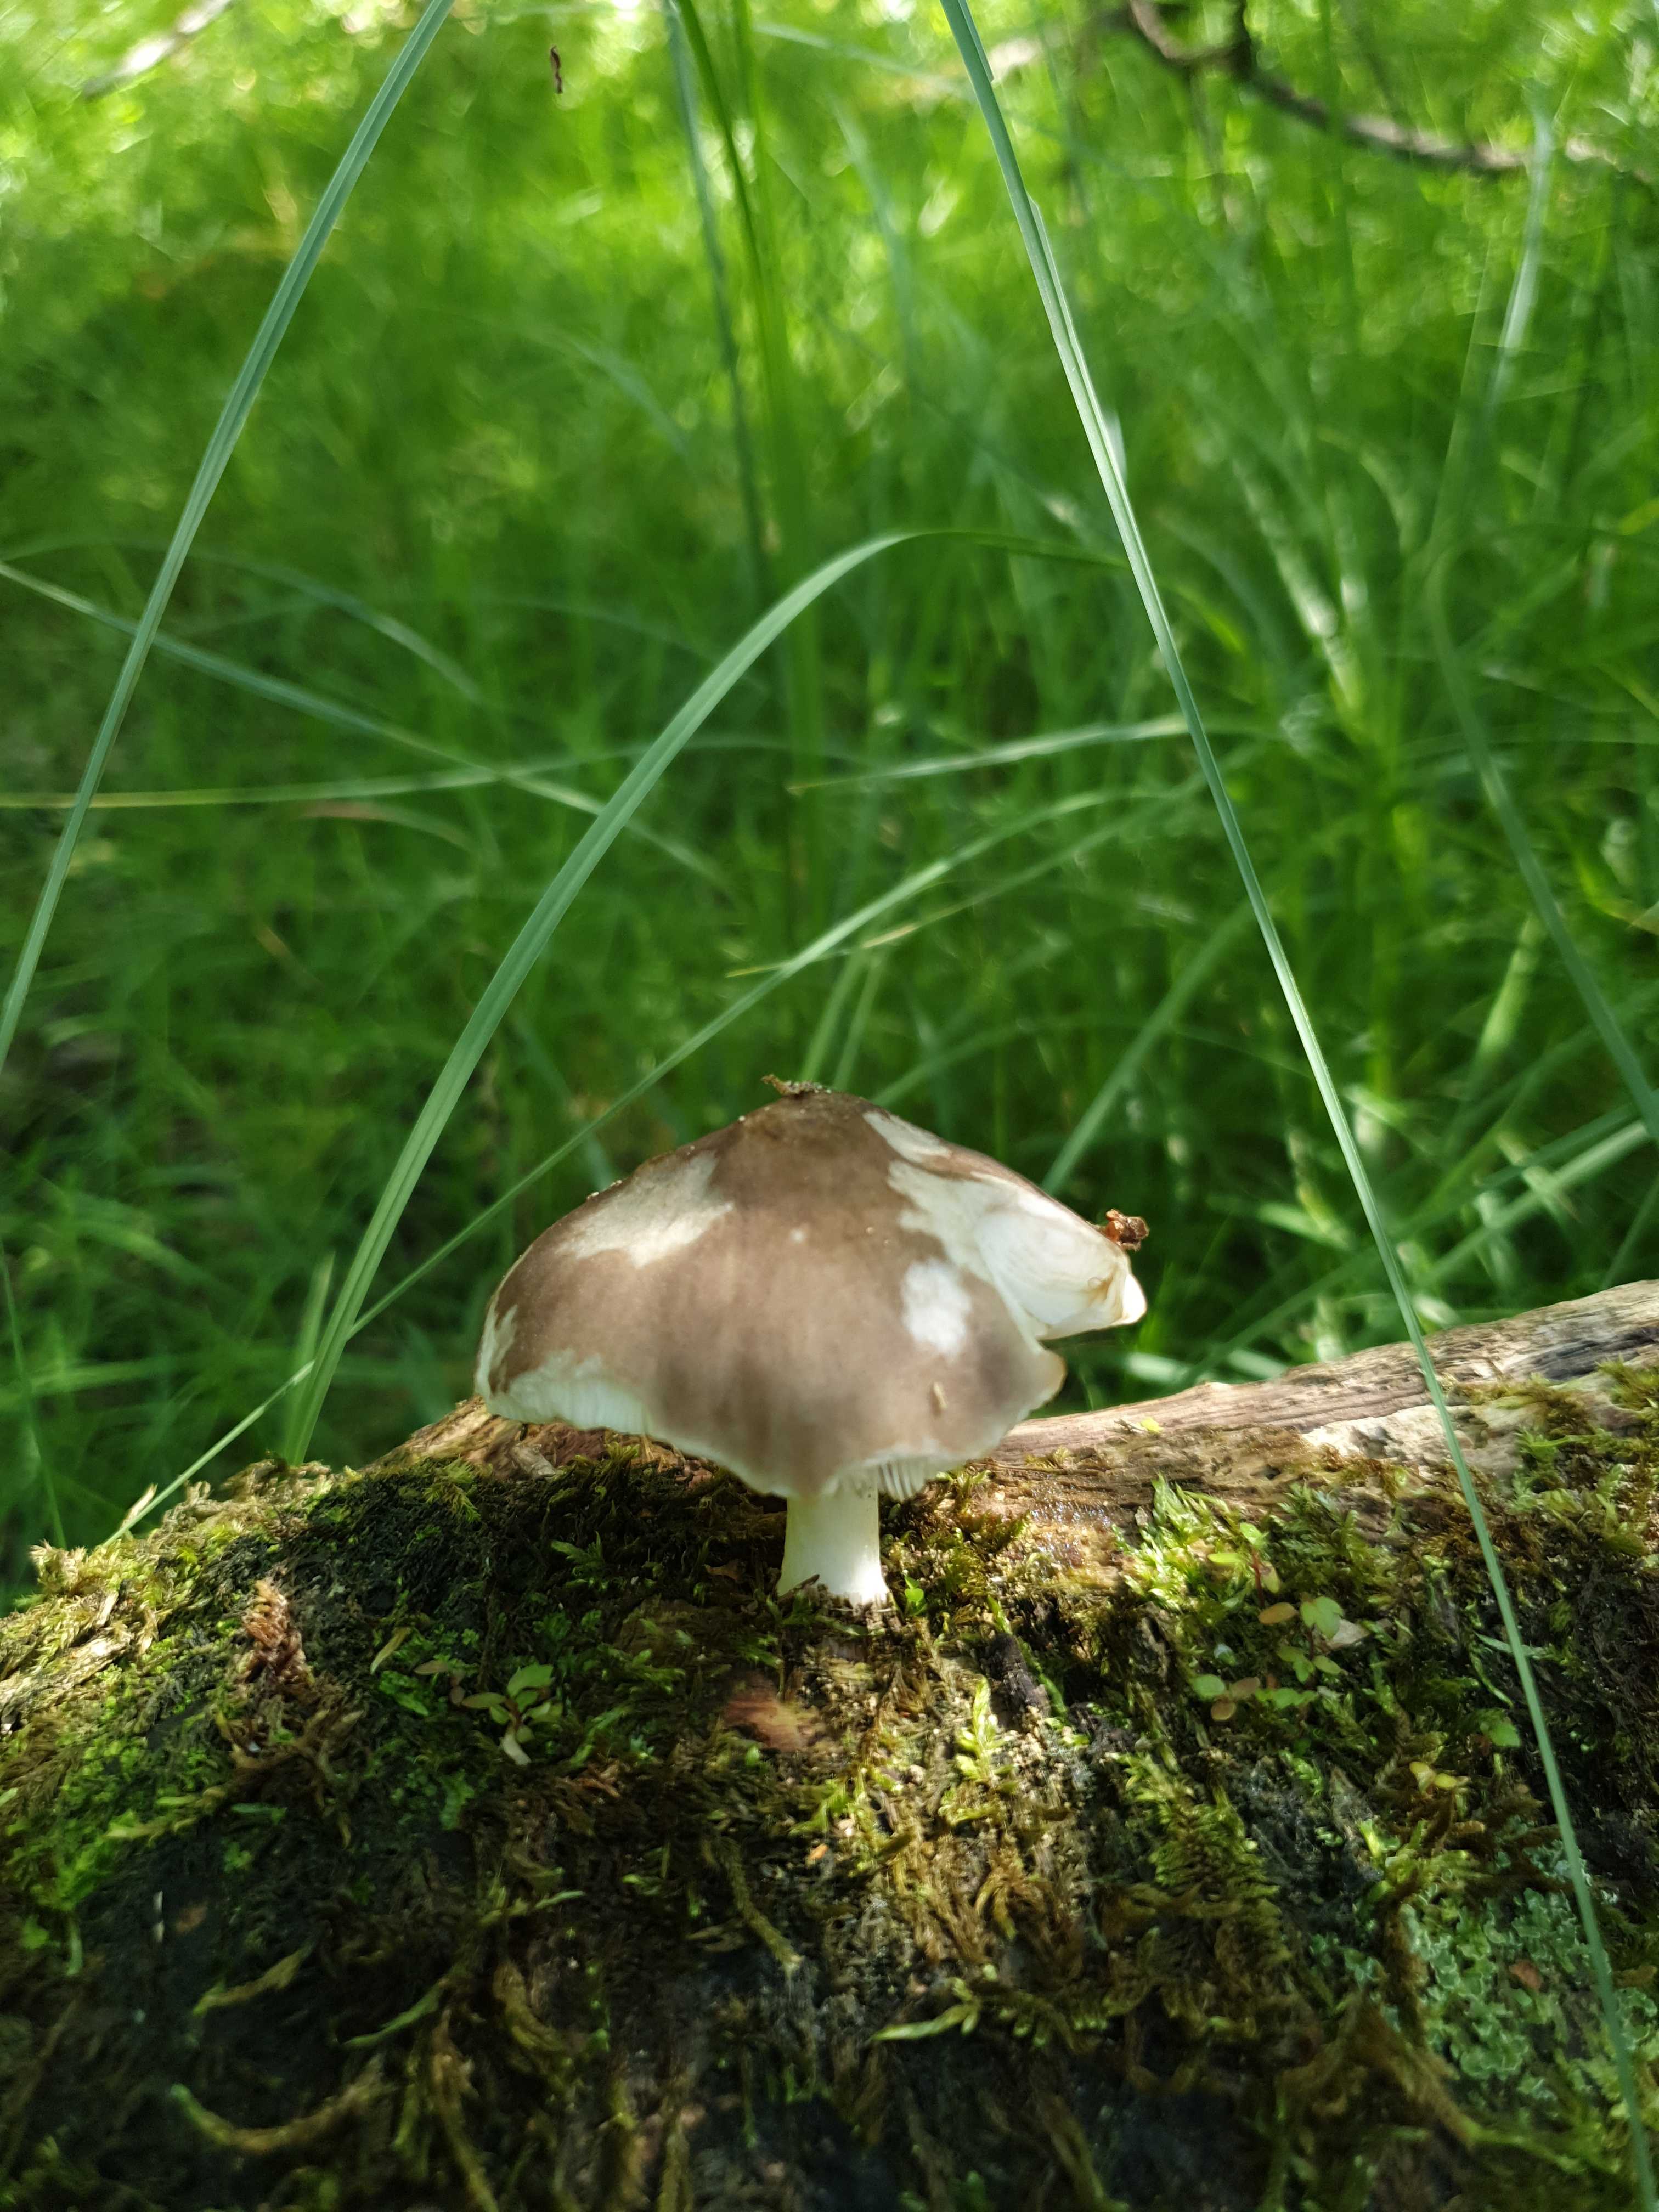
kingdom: Fungi
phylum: Basidiomycota
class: Agaricomycetes
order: Agaricales
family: Pluteaceae
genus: Pluteus
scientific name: Pluteus cervinus
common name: sodfarvet skærmhat
